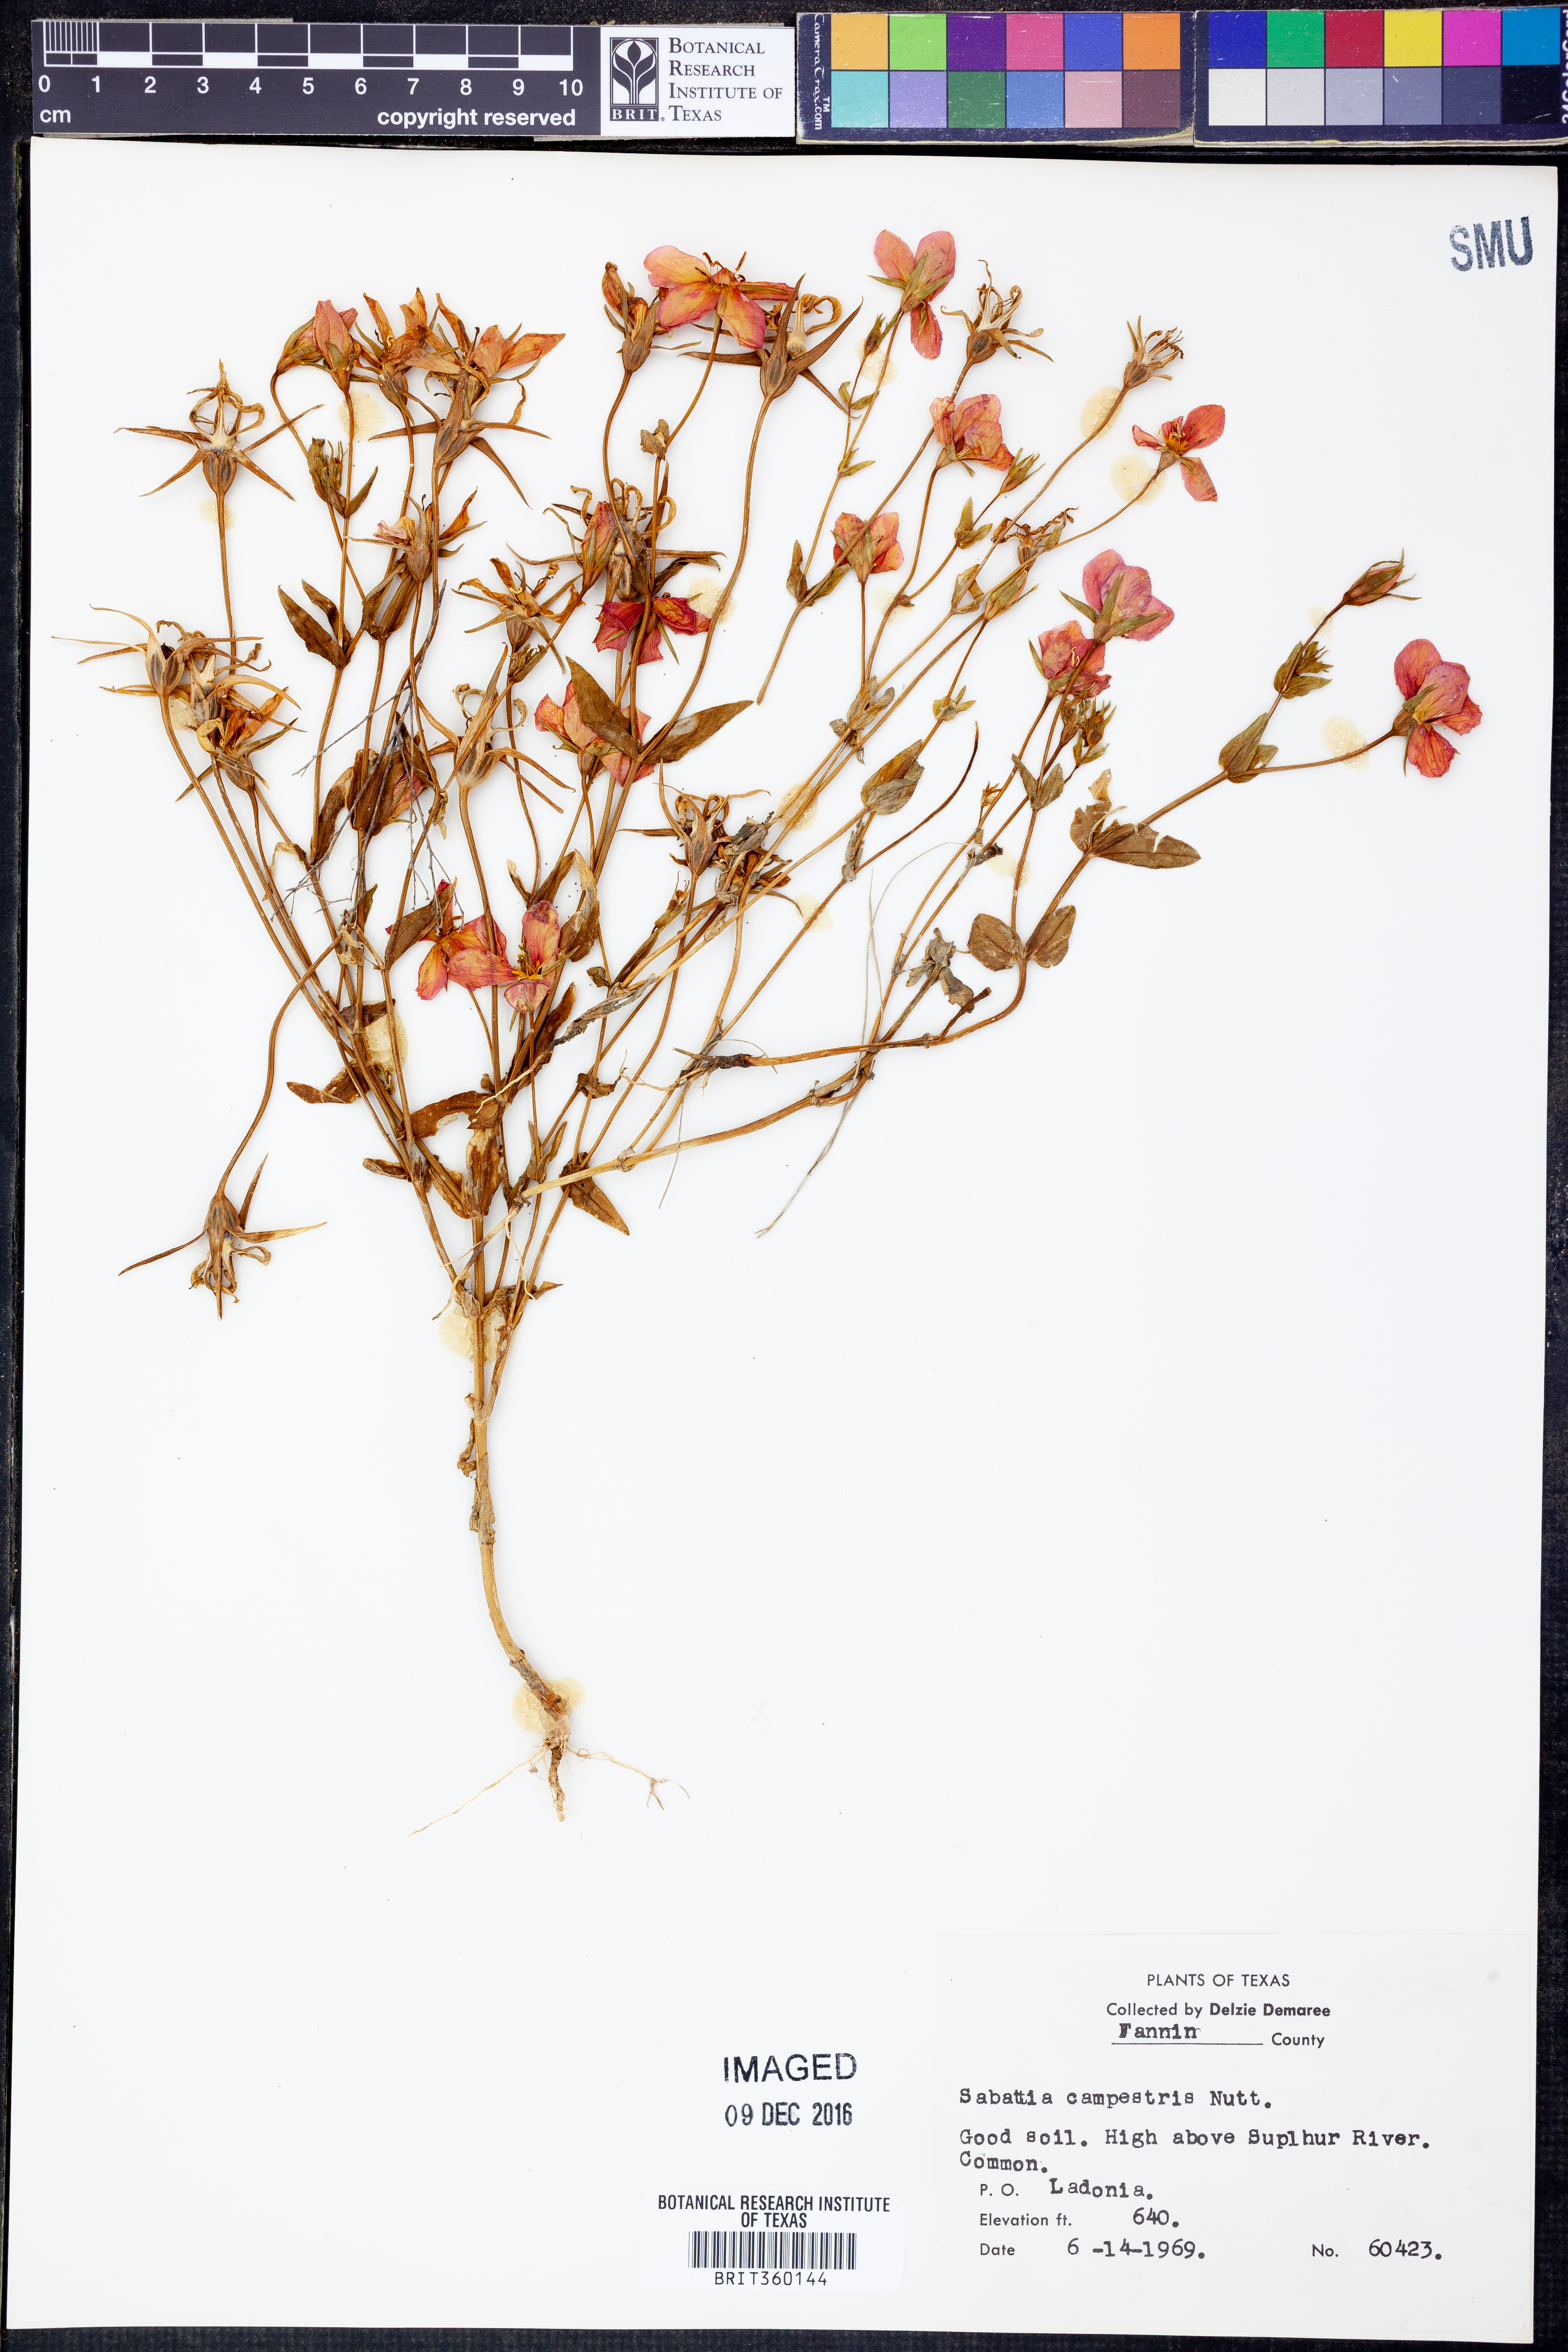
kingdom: Plantae
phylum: Tracheophyta
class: Magnoliopsida
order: Gentianales
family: Gentianaceae
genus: Sabatia
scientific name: Sabatia campestris
